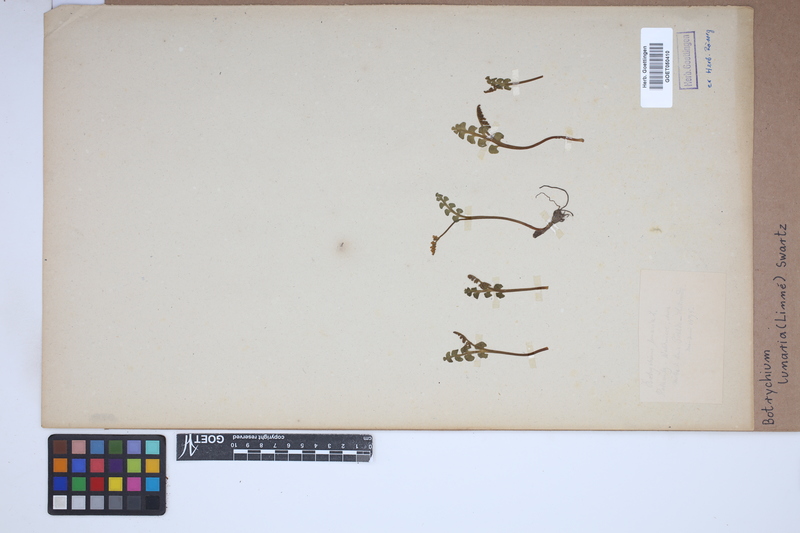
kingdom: Plantae
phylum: Tracheophyta
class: Polypodiopsida
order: Ophioglossales
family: Ophioglossaceae
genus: Botrychium
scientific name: Botrychium lunaria
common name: Moonwort
